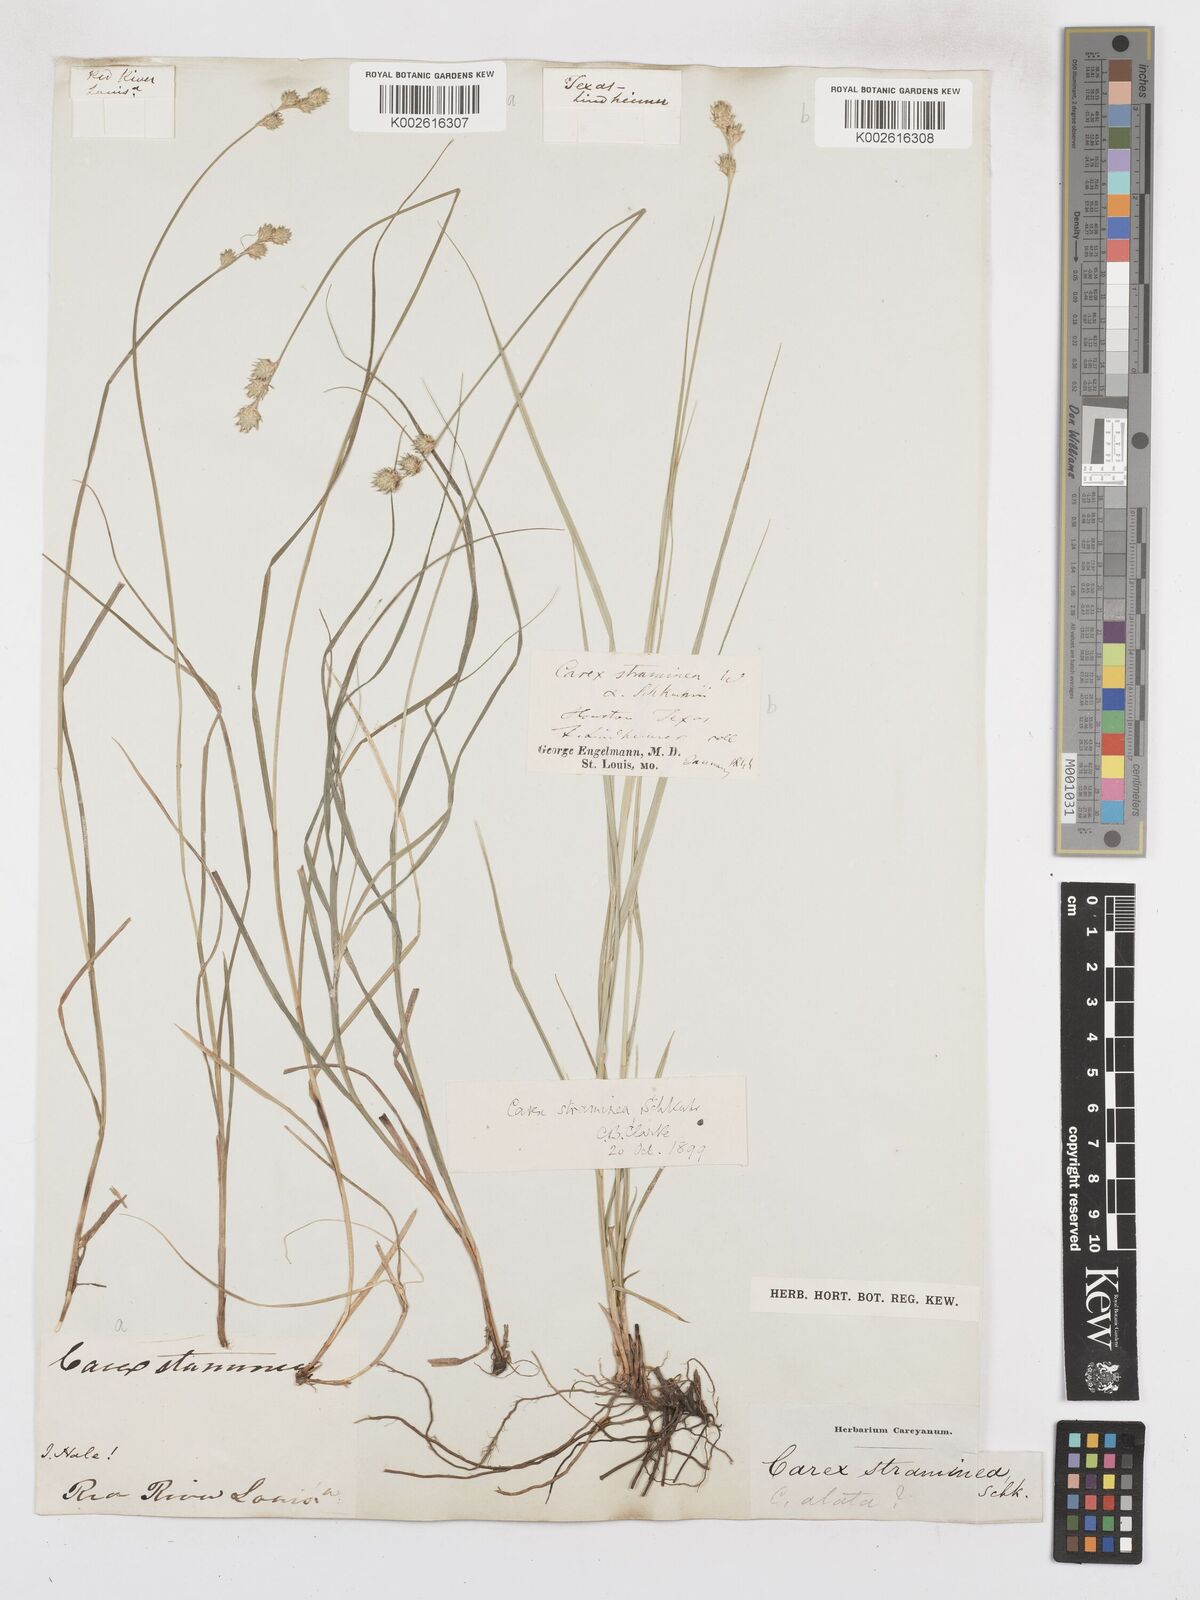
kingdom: Plantae
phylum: Tracheophyta
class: Liliopsida
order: Poales
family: Cyperaceae
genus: Carex
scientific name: Carex albolutescens
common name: Freenish white sedge
